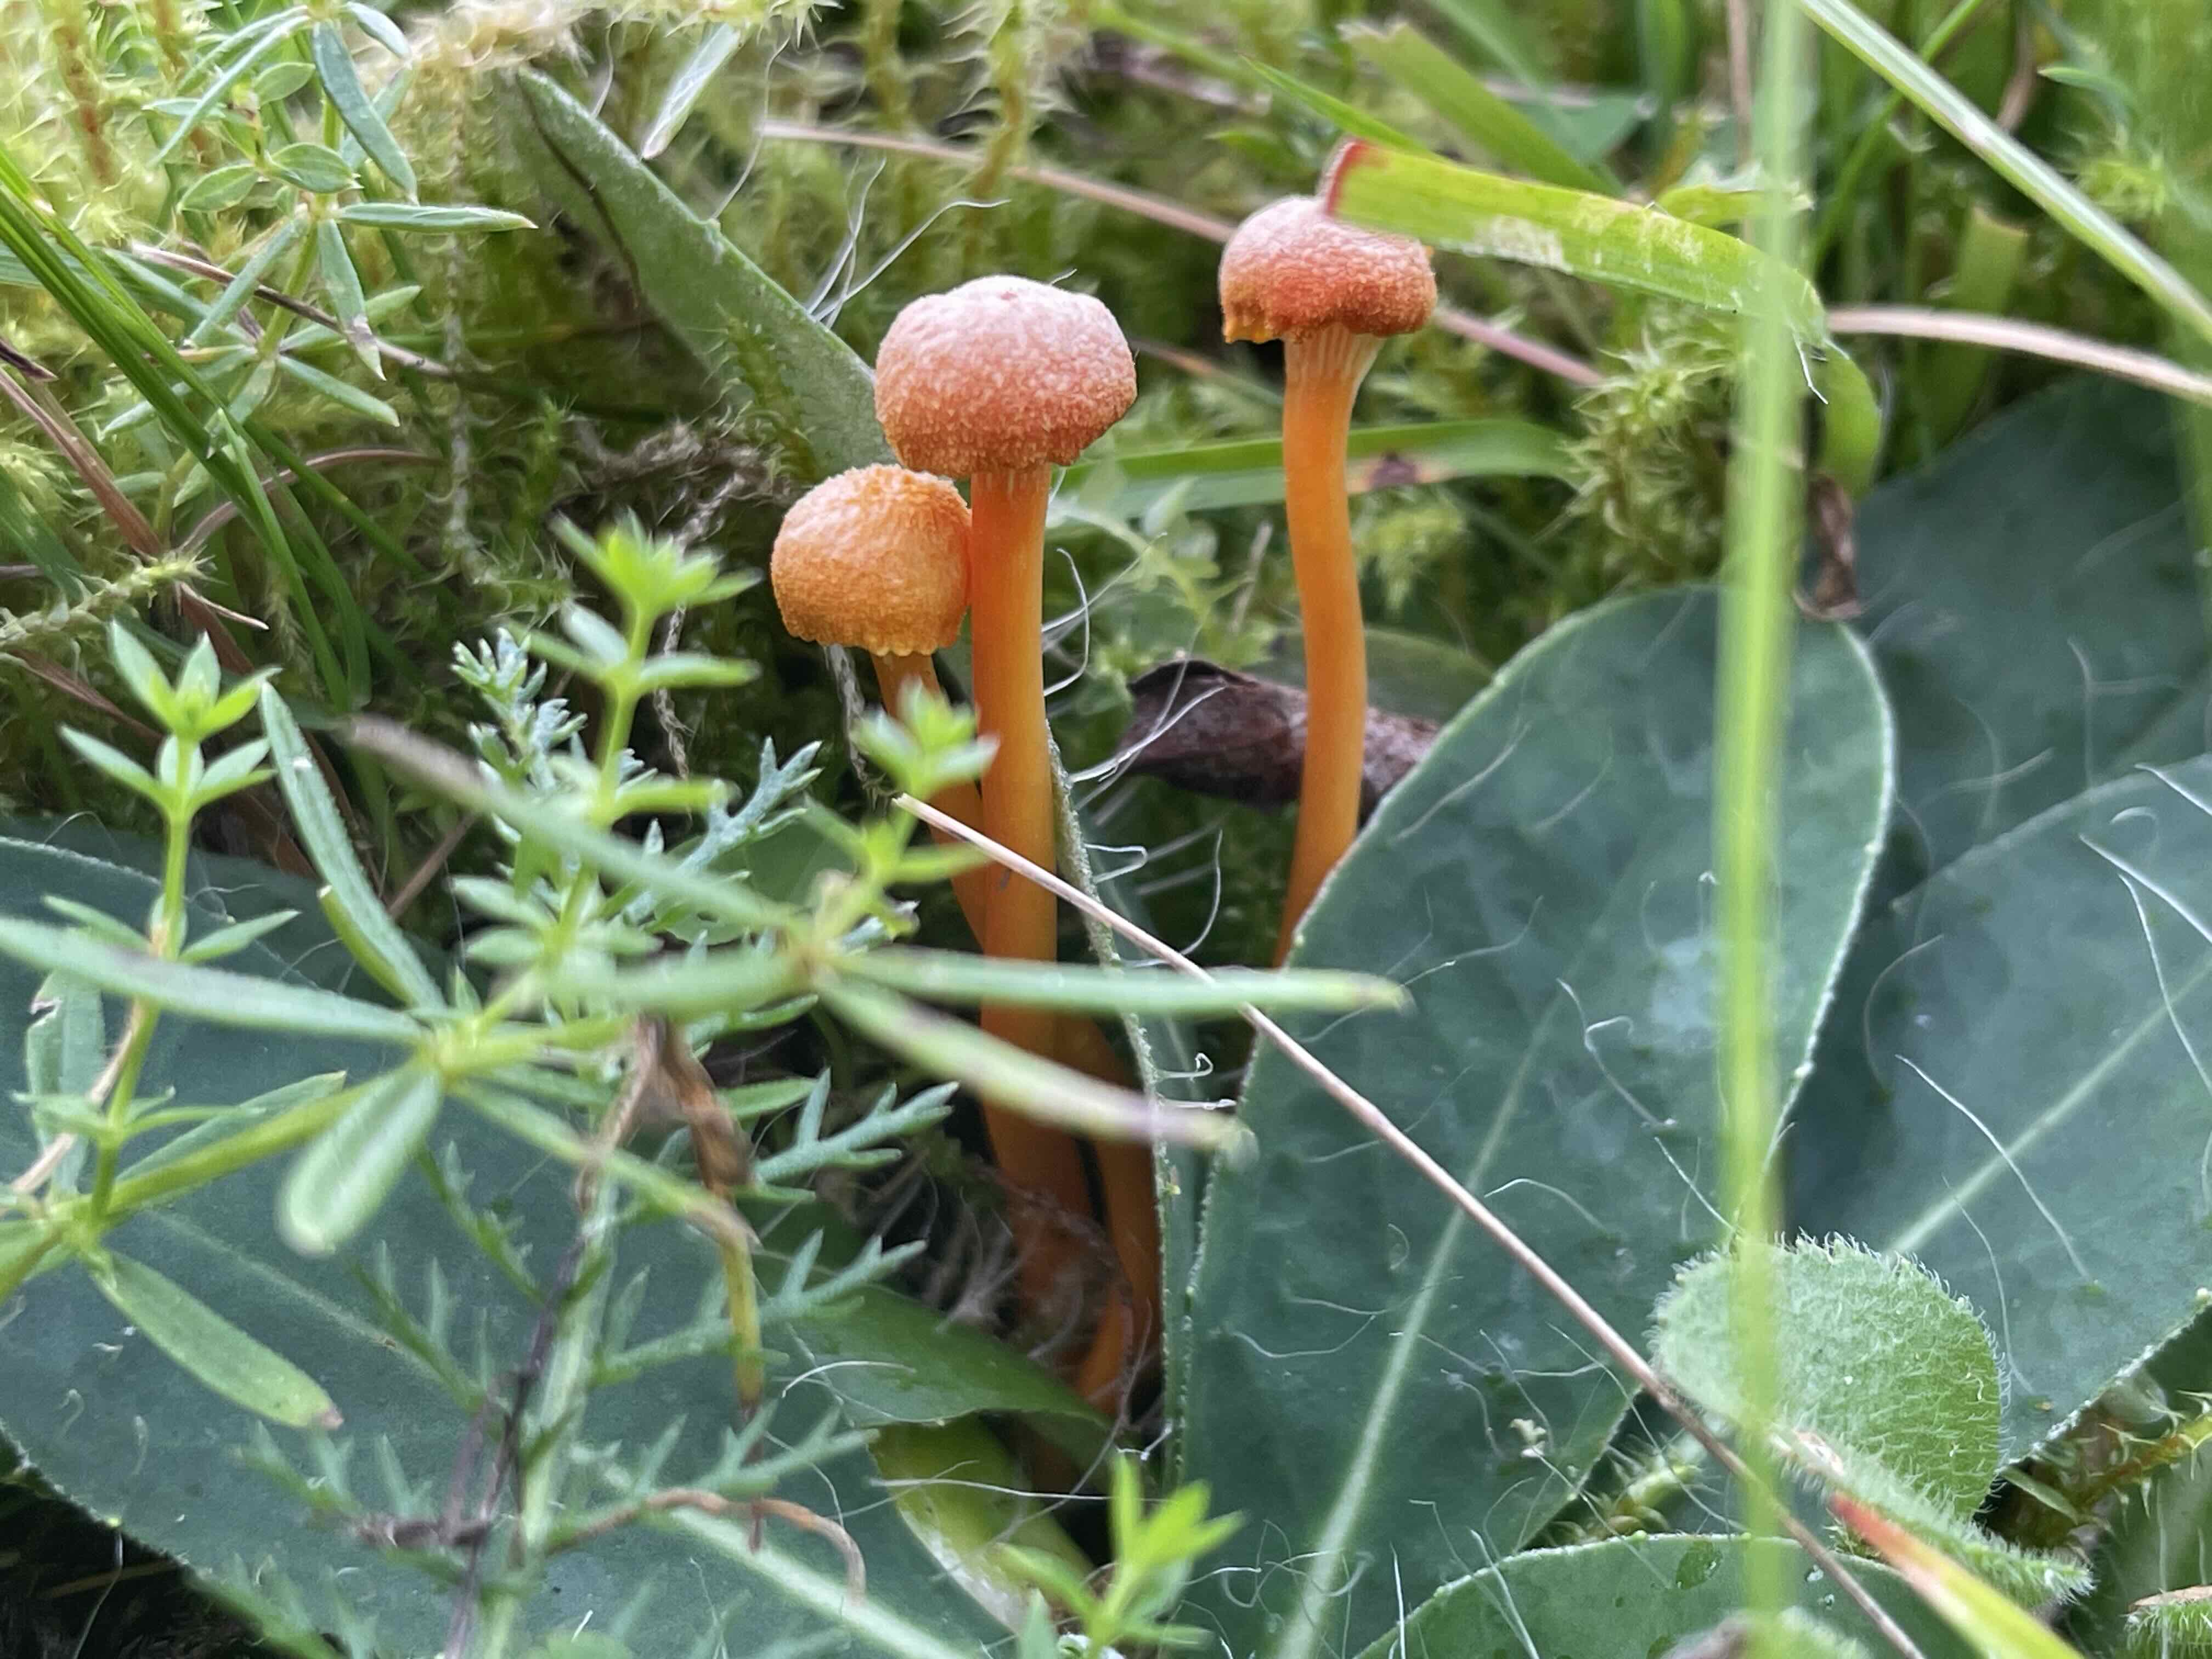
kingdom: Fungi
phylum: Basidiomycota
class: Agaricomycetes
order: Agaricales
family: Hygrophoraceae
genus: Hygrocybe
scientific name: Hygrocybe cantharellus
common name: kantarel-vokshat
